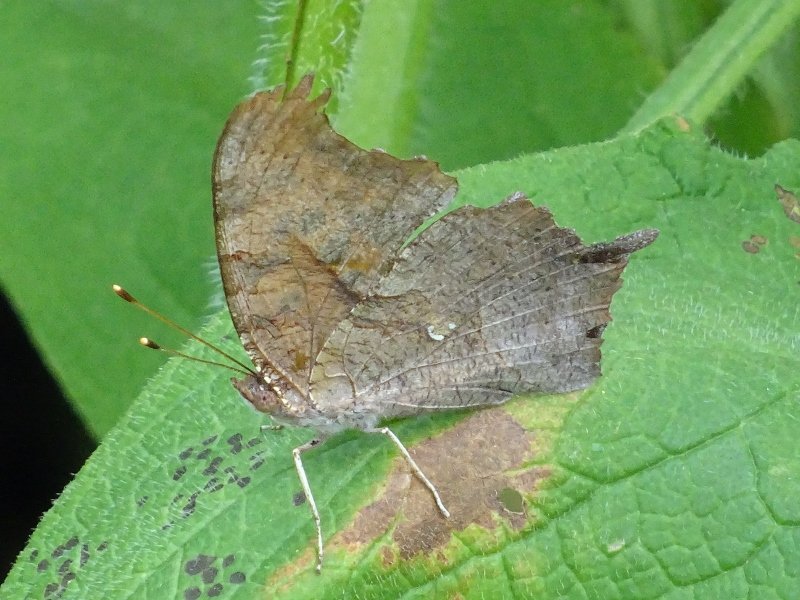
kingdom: Animalia
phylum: Arthropoda
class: Insecta
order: Lepidoptera
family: Nymphalidae
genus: Polygonia
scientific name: Polygonia interrogationis
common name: Question Mark
